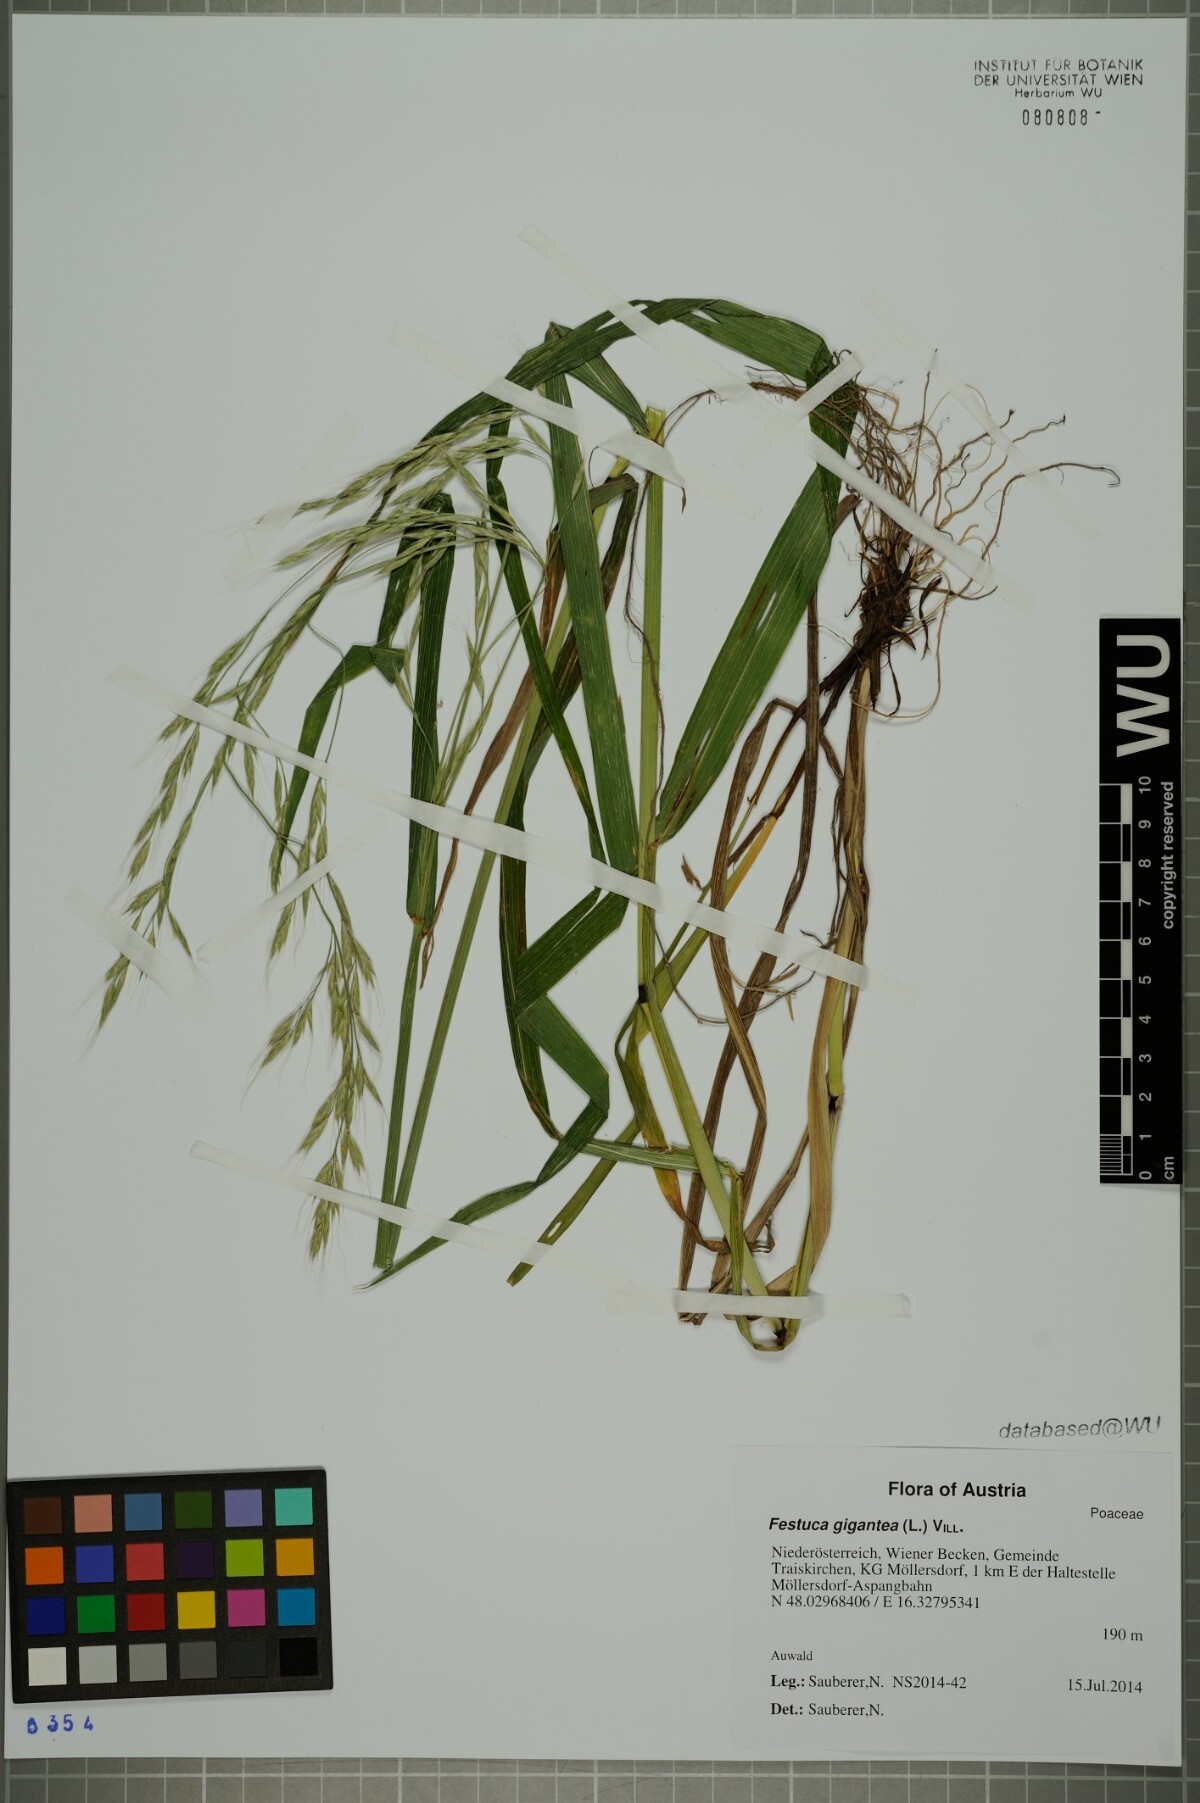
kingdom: Plantae
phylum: Tracheophyta
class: Liliopsida
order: Poales
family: Poaceae
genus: Lolium
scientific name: Lolium giganteum
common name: Giant fescue
